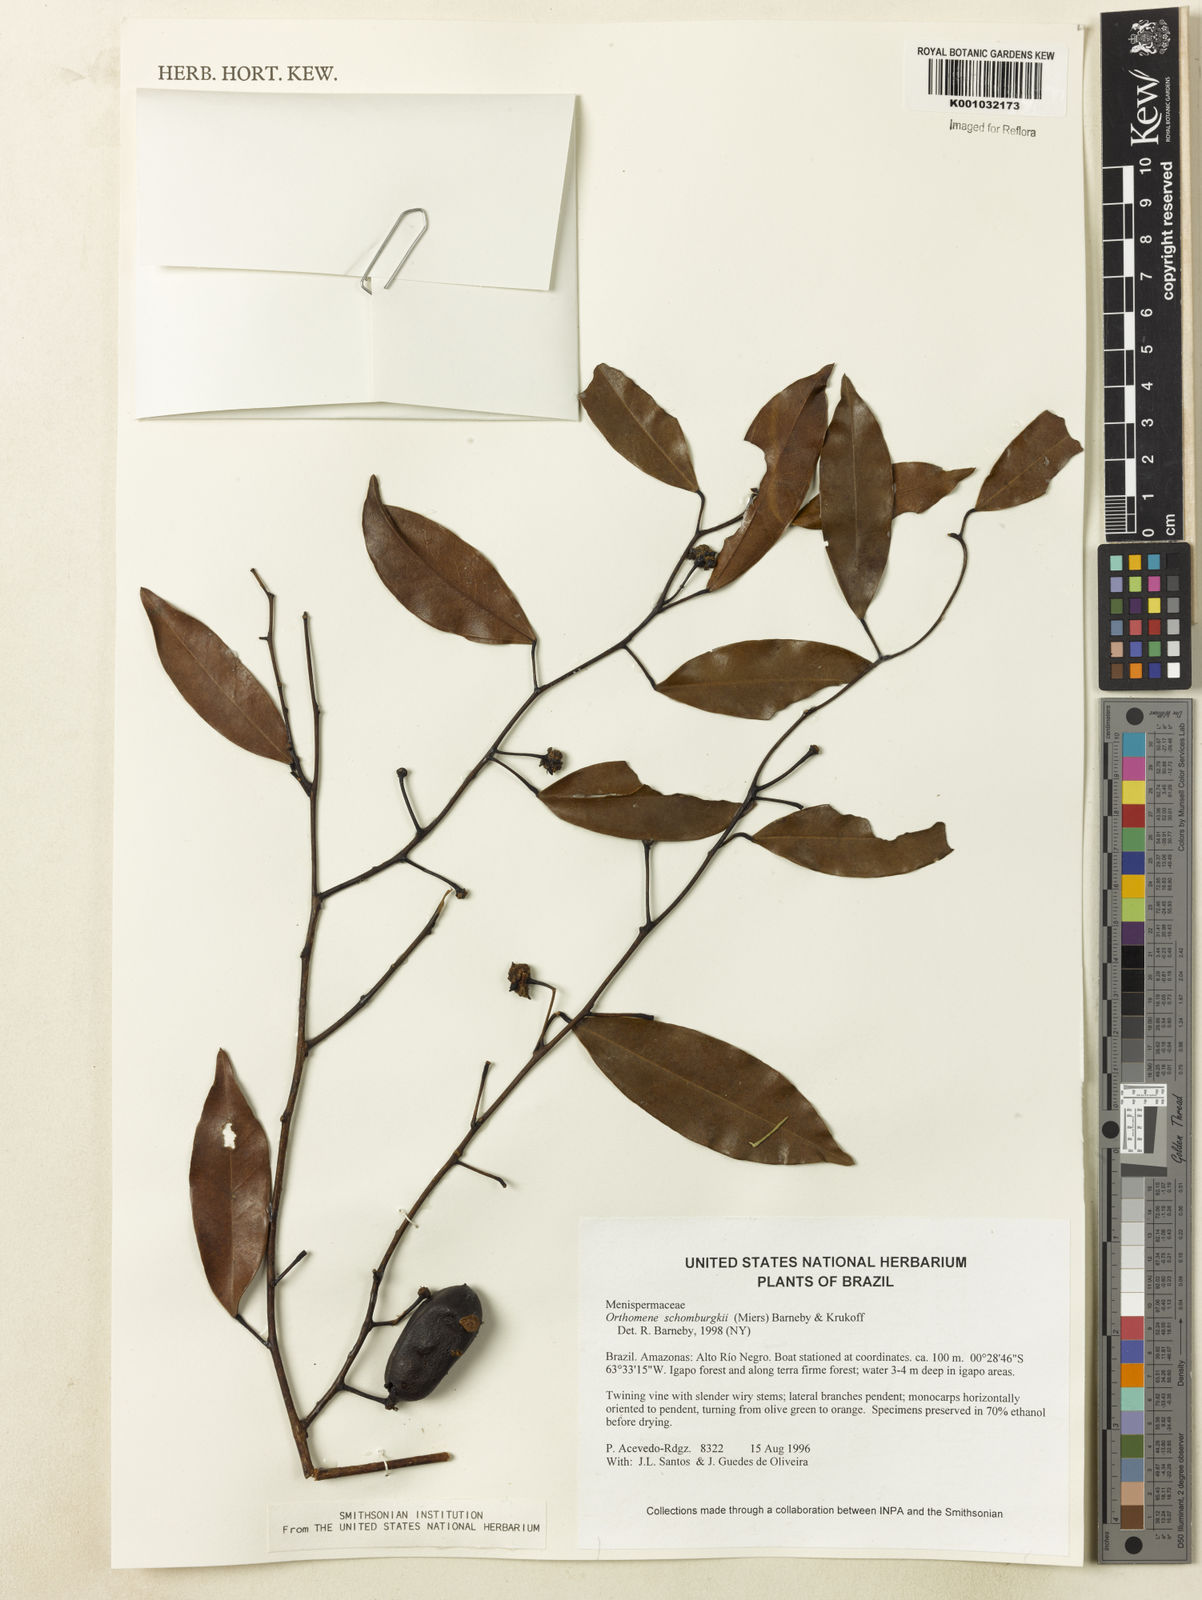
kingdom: Plantae
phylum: Tracheophyta
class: Magnoliopsida
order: Ranunculales
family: Menispermaceae
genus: Orthomene
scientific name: Orthomene schomburgkii
